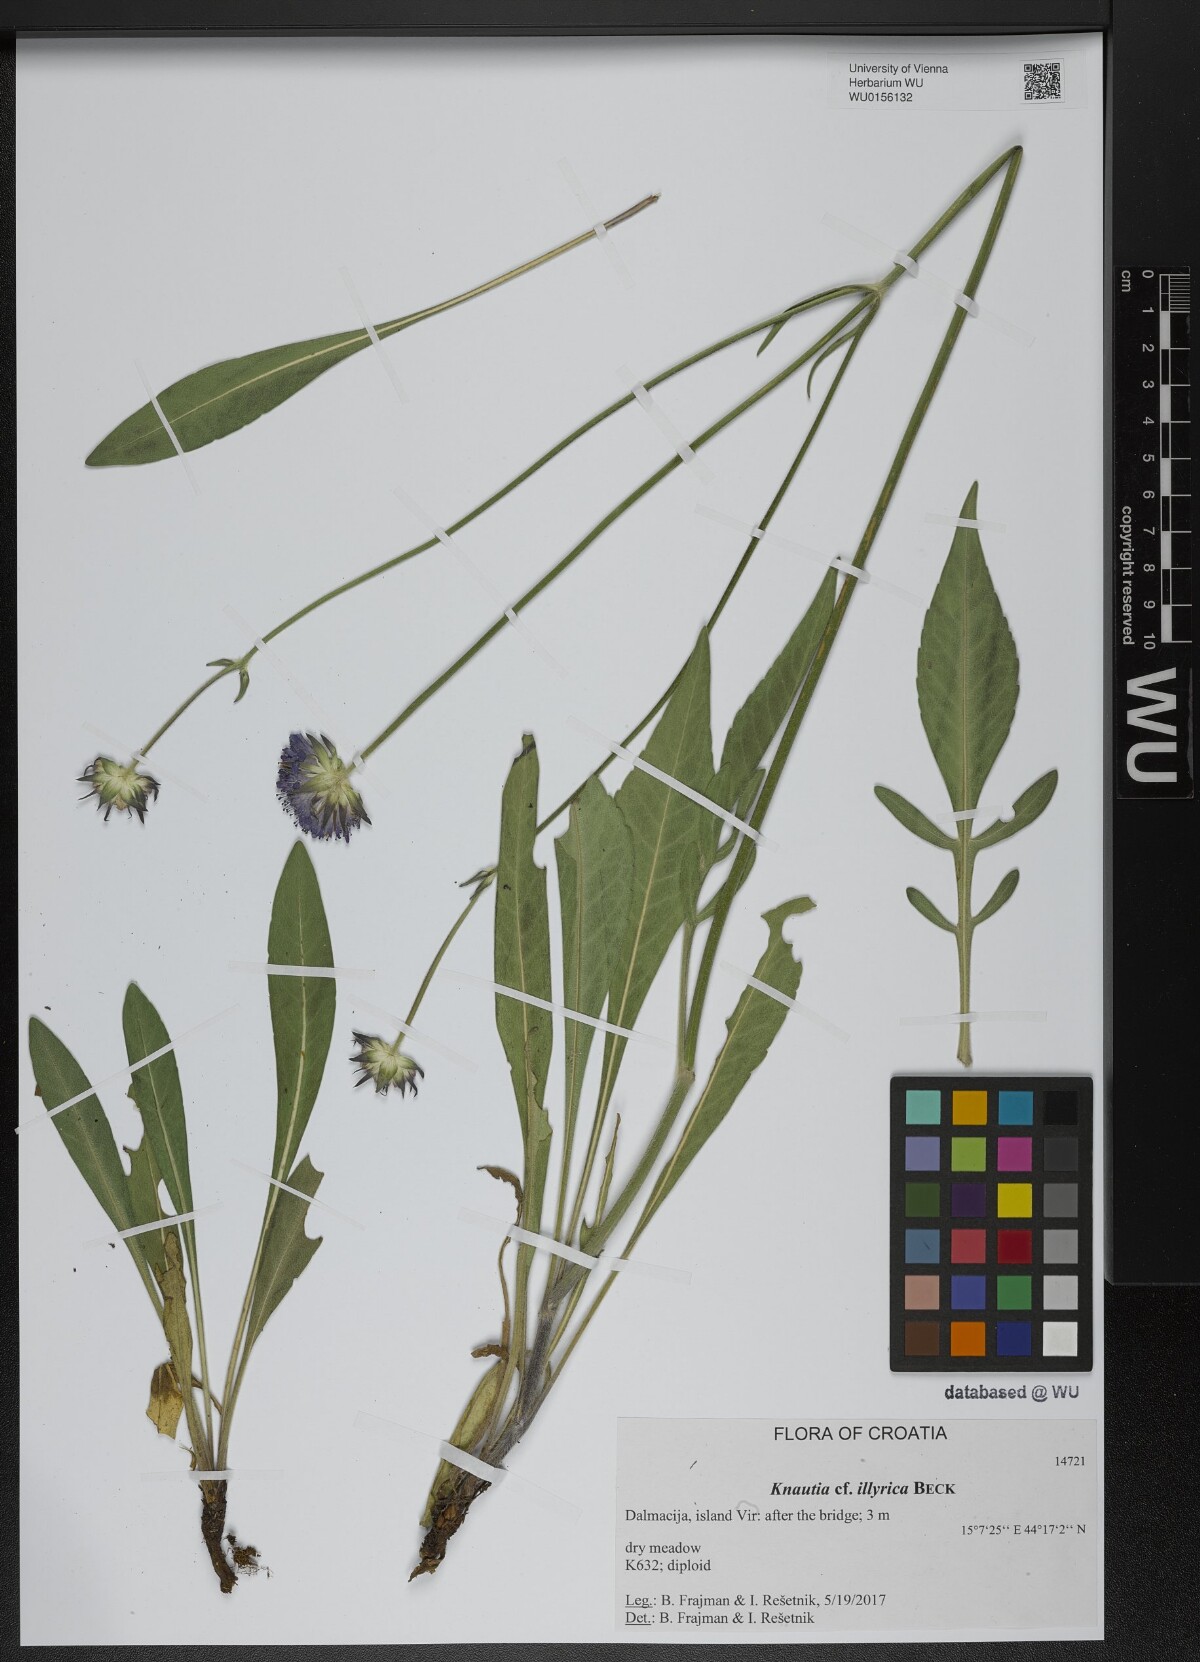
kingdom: Plantae
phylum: Tracheophyta
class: Magnoliopsida
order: Dipsacales
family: Caprifoliaceae
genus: Knautia
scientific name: Knautia illyrica
